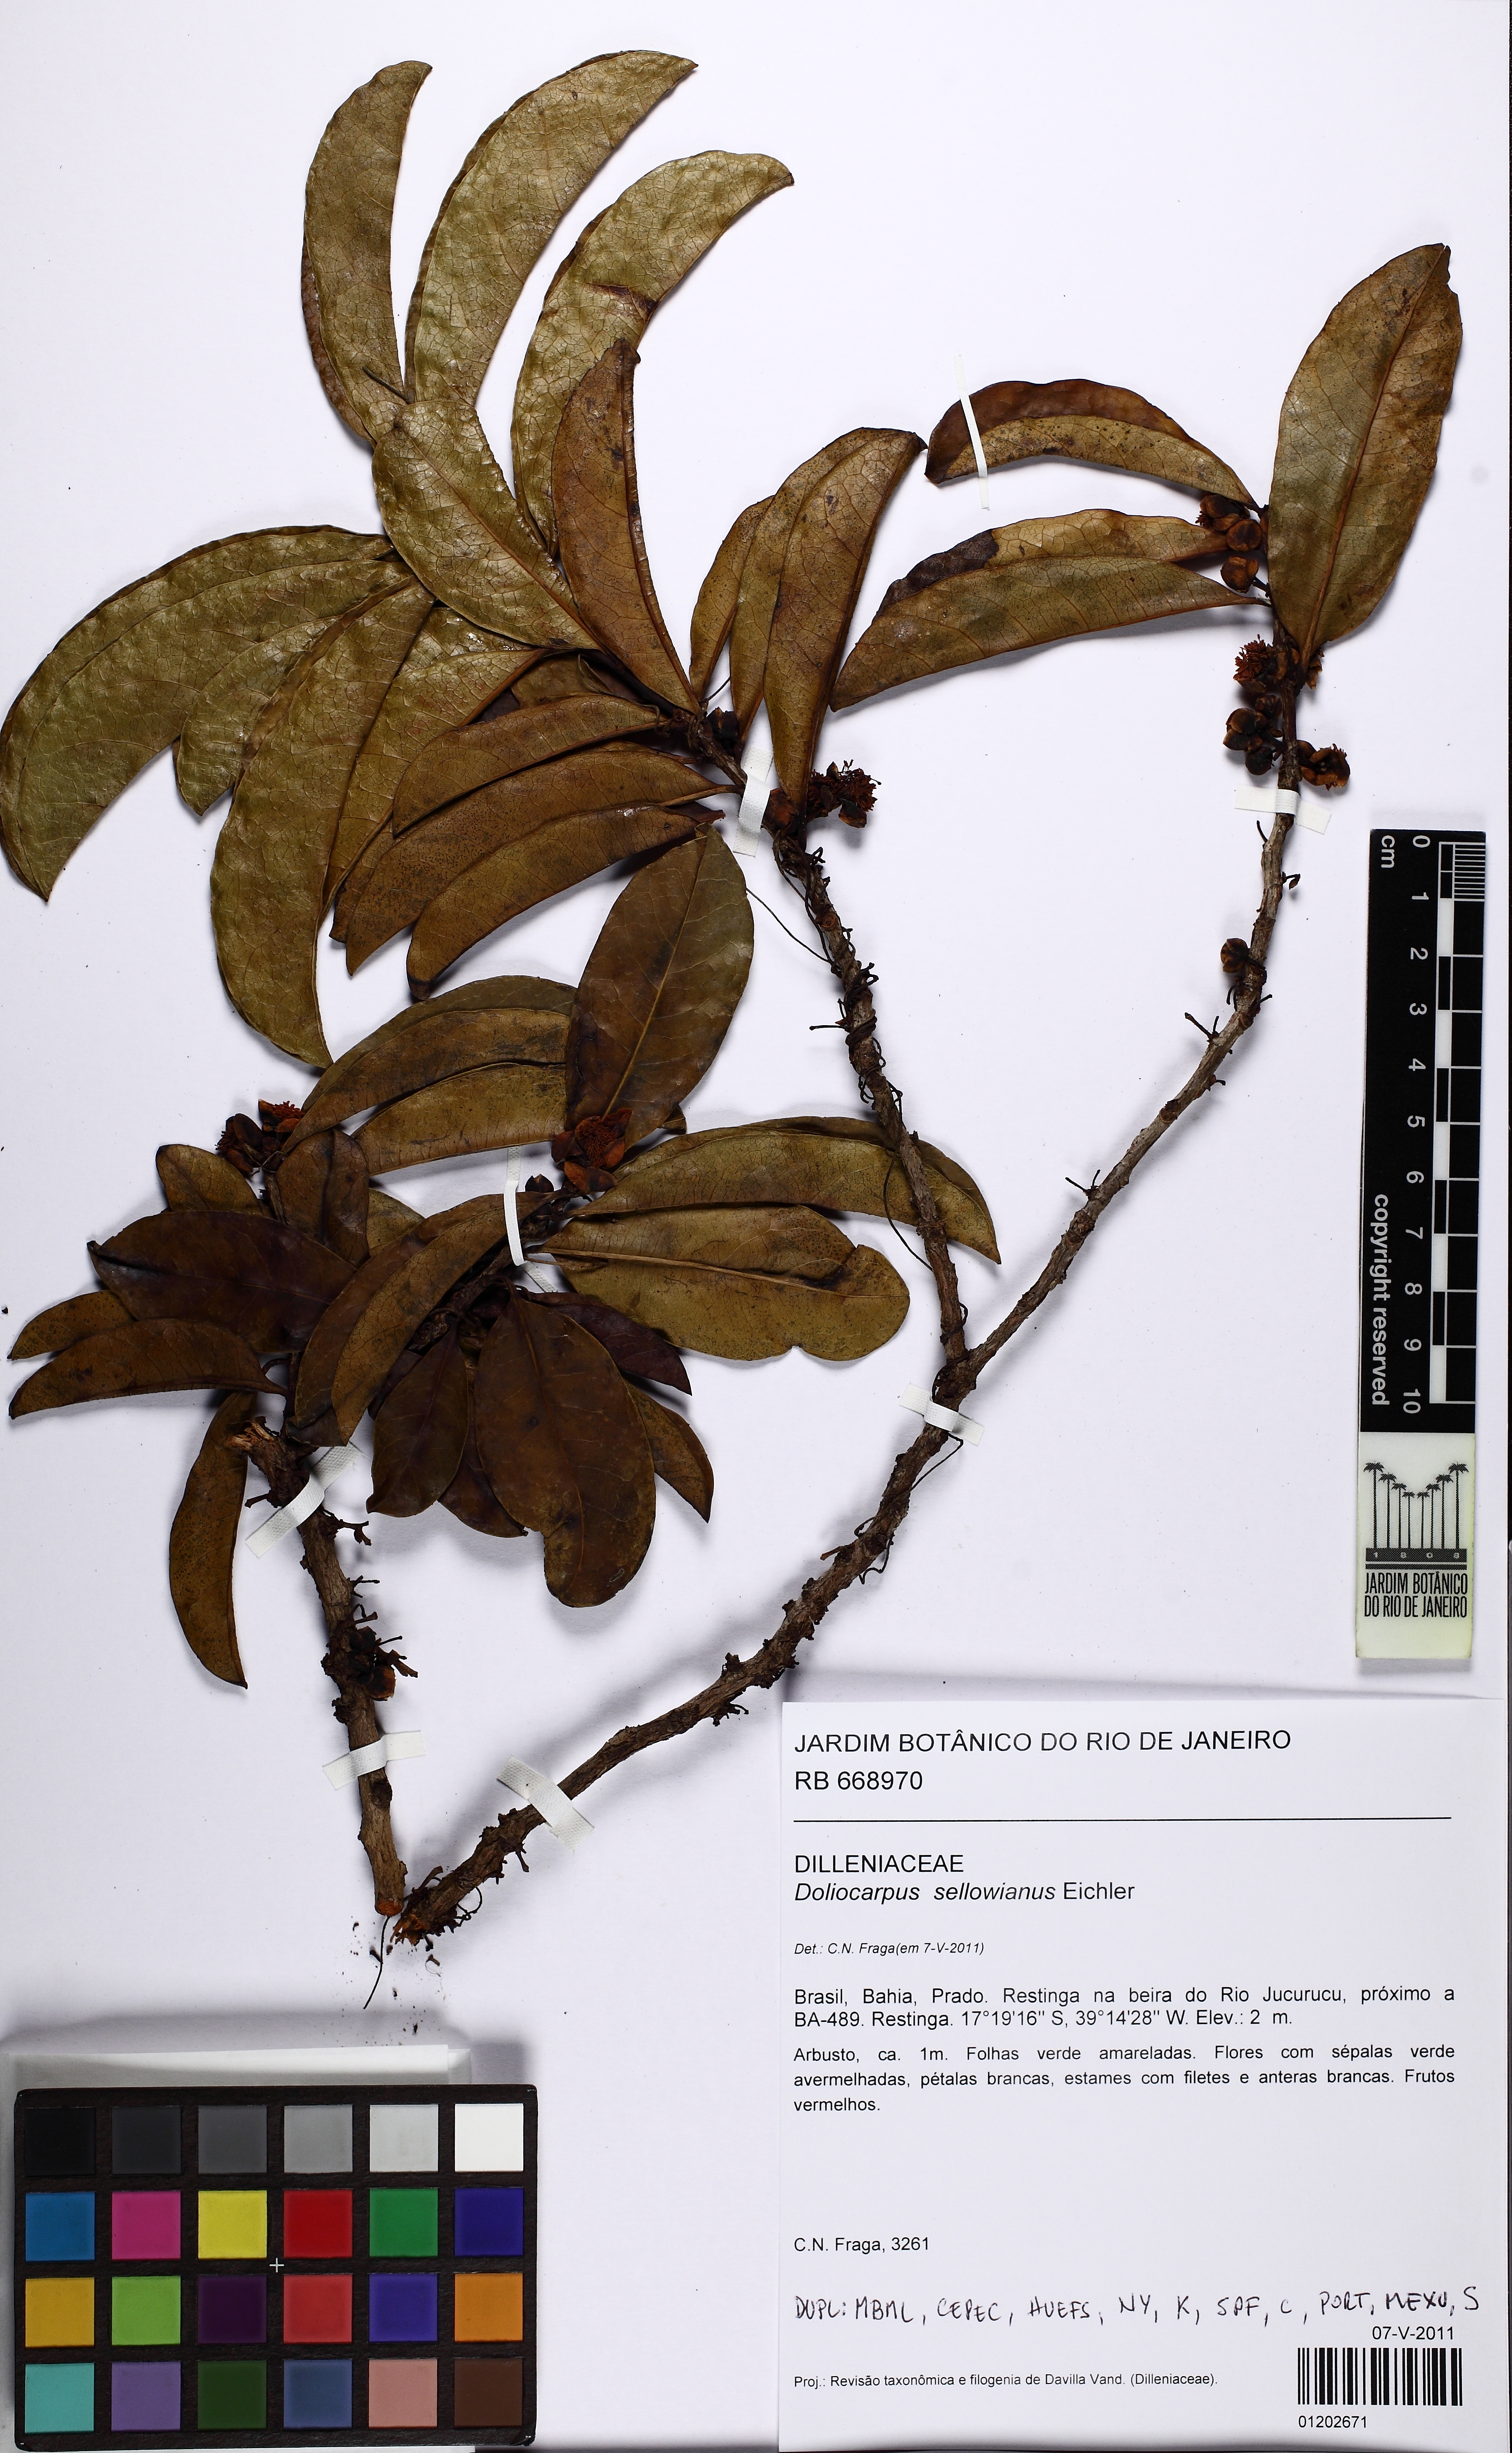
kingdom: Plantae
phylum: Tracheophyta
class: Magnoliopsida
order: Dilleniales
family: Dilleniaceae
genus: Doliocarpus
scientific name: Doliocarpus sellowianus
